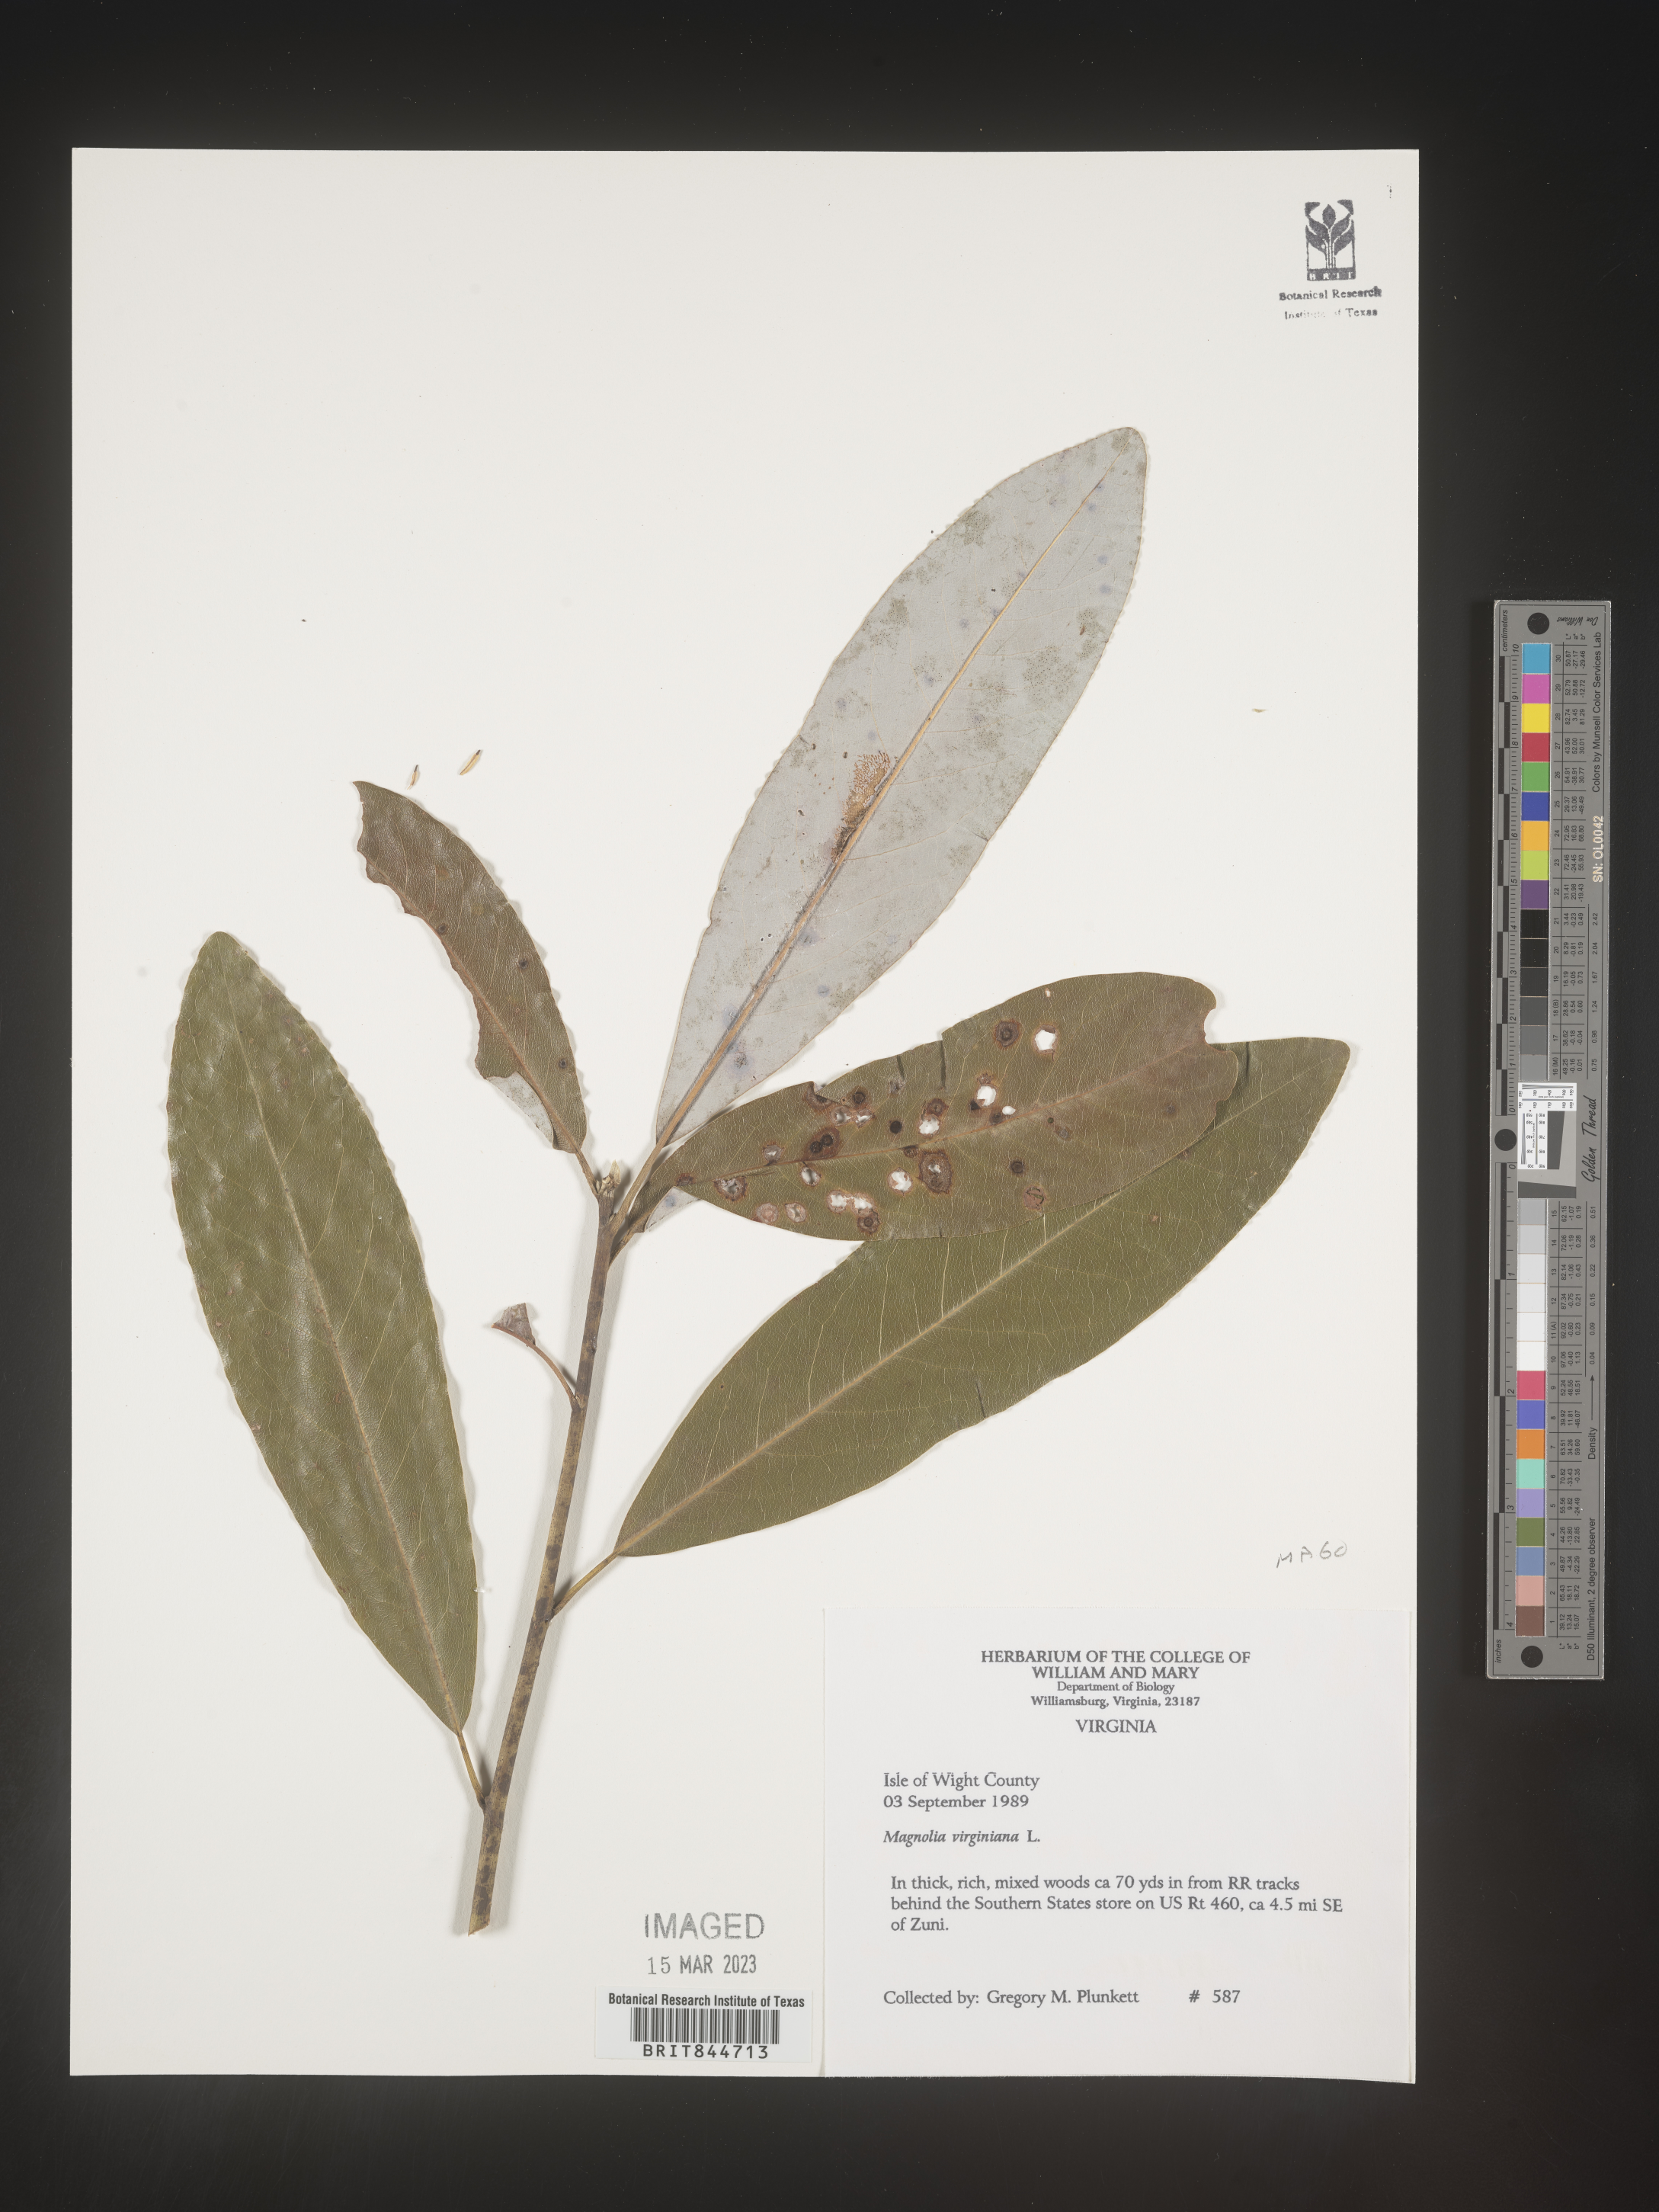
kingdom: Plantae
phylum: Tracheophyta
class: Magnoliopsida
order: Magnoliales
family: Magnoliaceae
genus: Magnolia
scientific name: Magnolia virginiana
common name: Swamp bay
